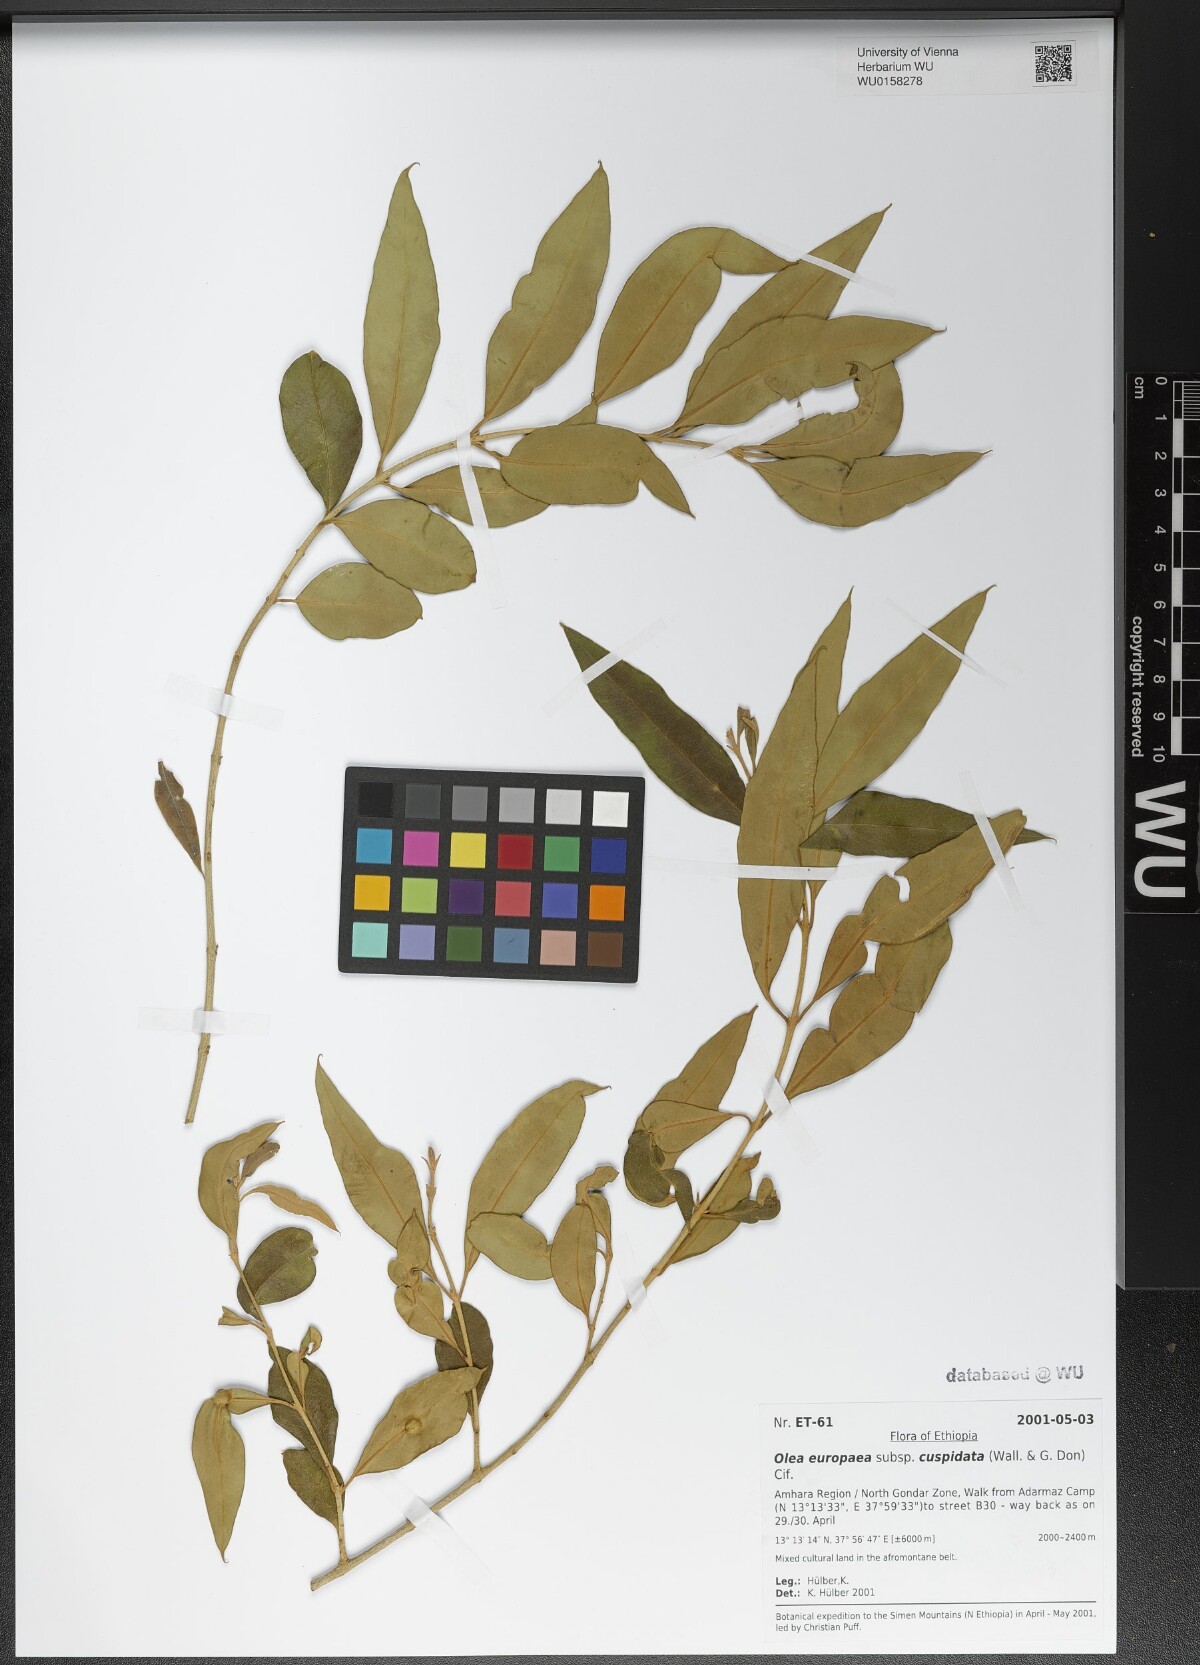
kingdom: Plantae
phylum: Tracheophyta
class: Magnoliopsida
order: Lamiales
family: Oleaceae
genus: Olea
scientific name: Olea europaea
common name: Olive
